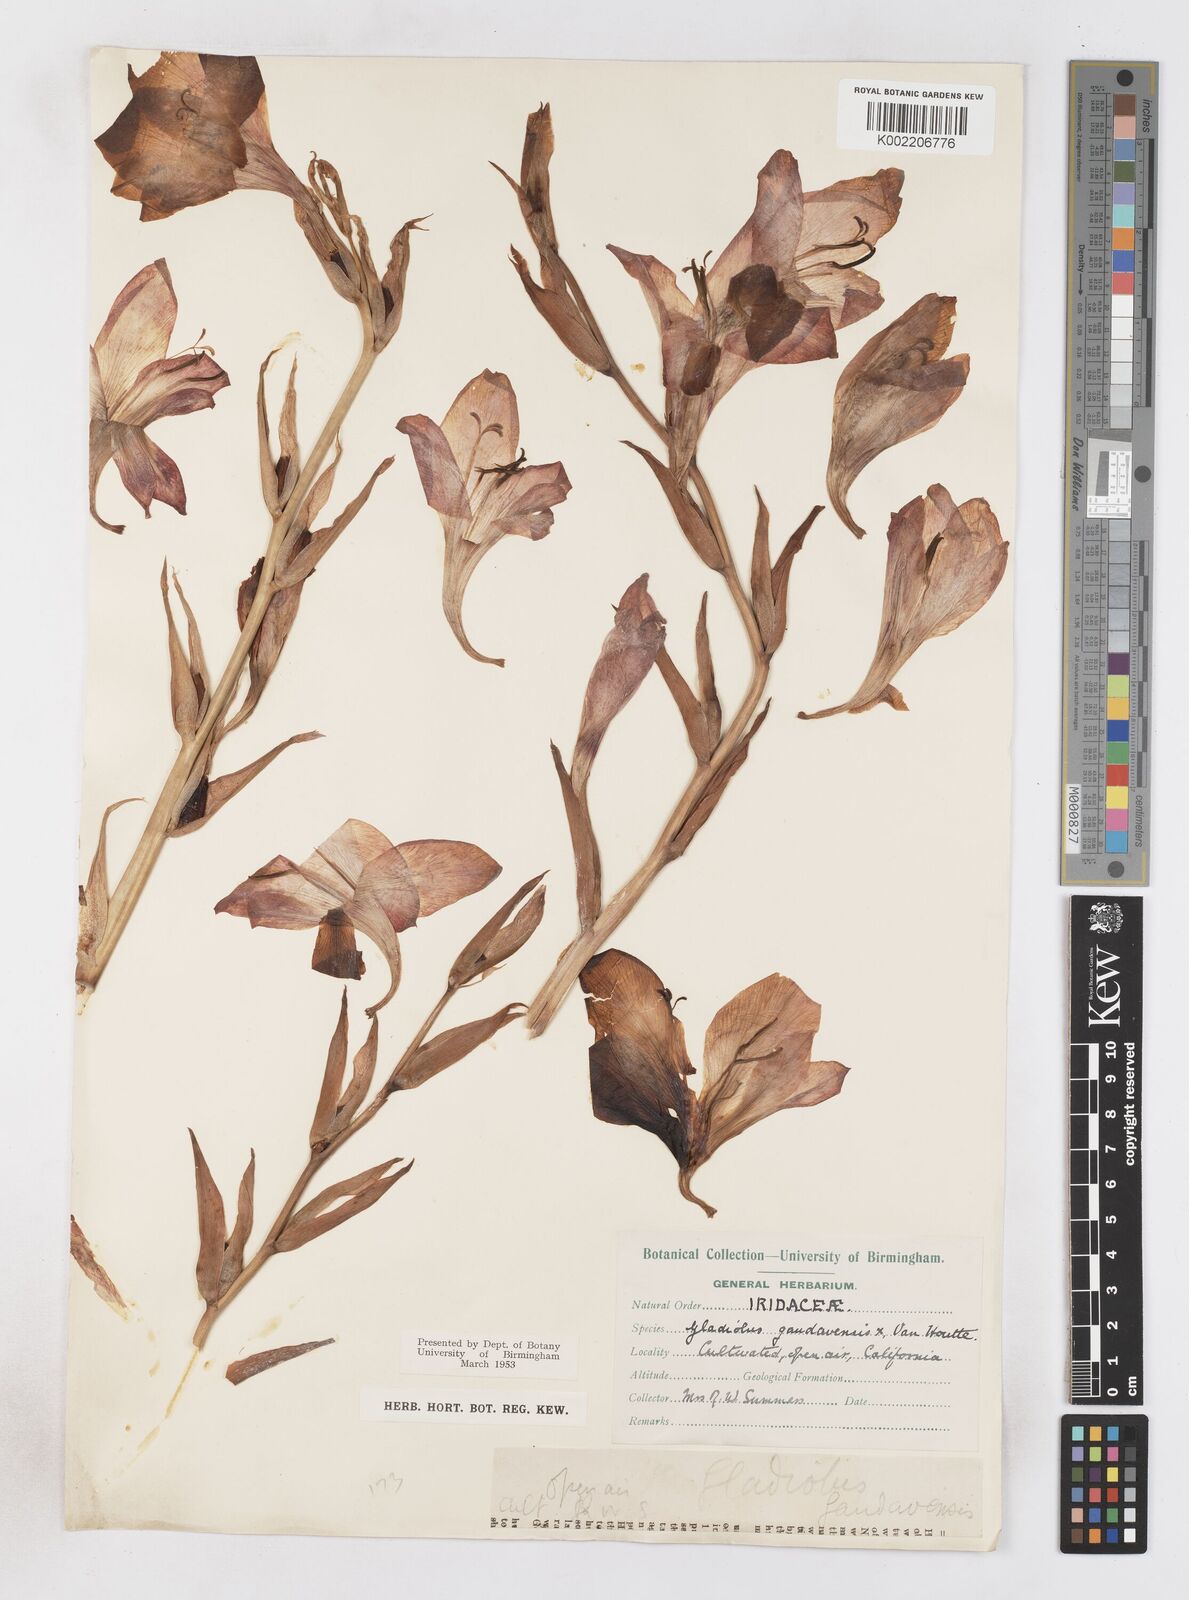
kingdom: Plantae
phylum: Tracheophyta
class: Liliopsida
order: Asparagales
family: Iridaceae
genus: Gladiolus
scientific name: Gladiolus gandavensis
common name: Gladiolus
